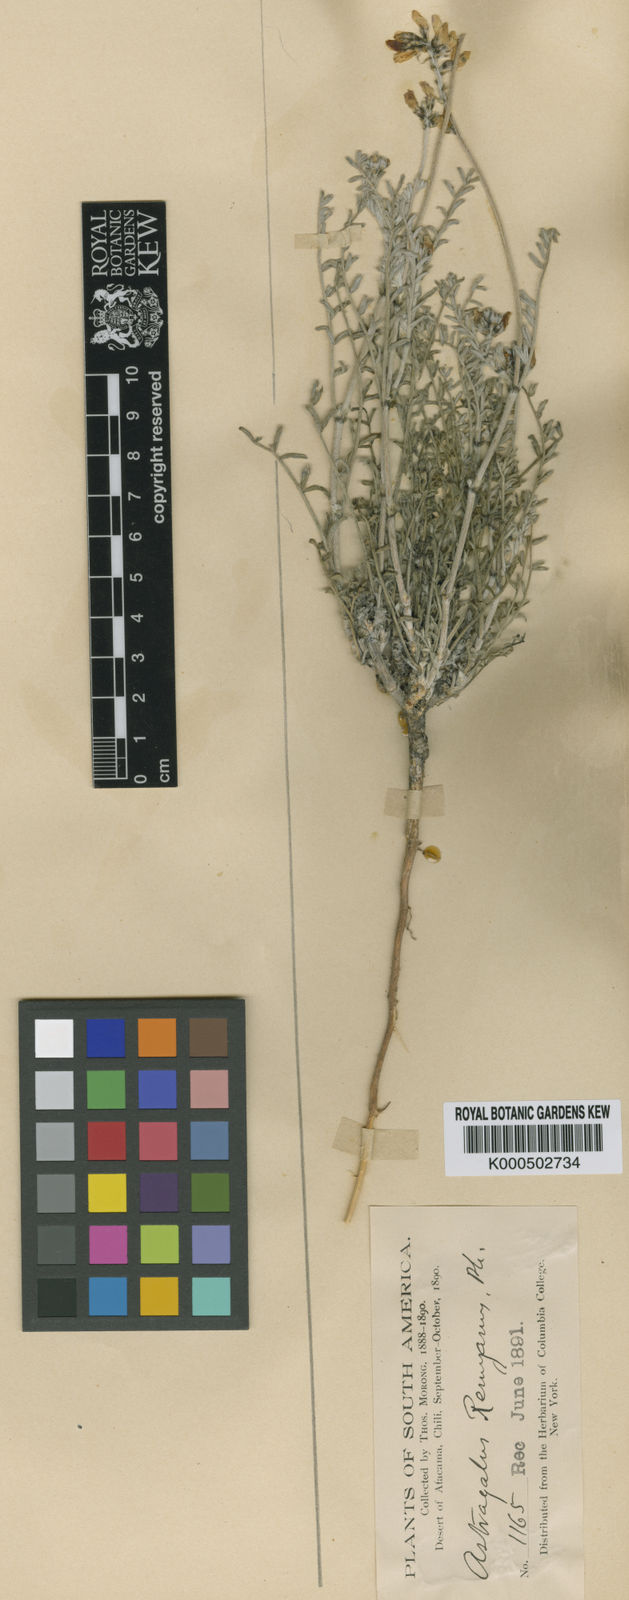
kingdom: Plantae
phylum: Tracheophyta
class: Magnoliopsida
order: Fabales
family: Fabaceae
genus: Astragalus
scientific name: Astragalus dodtii
